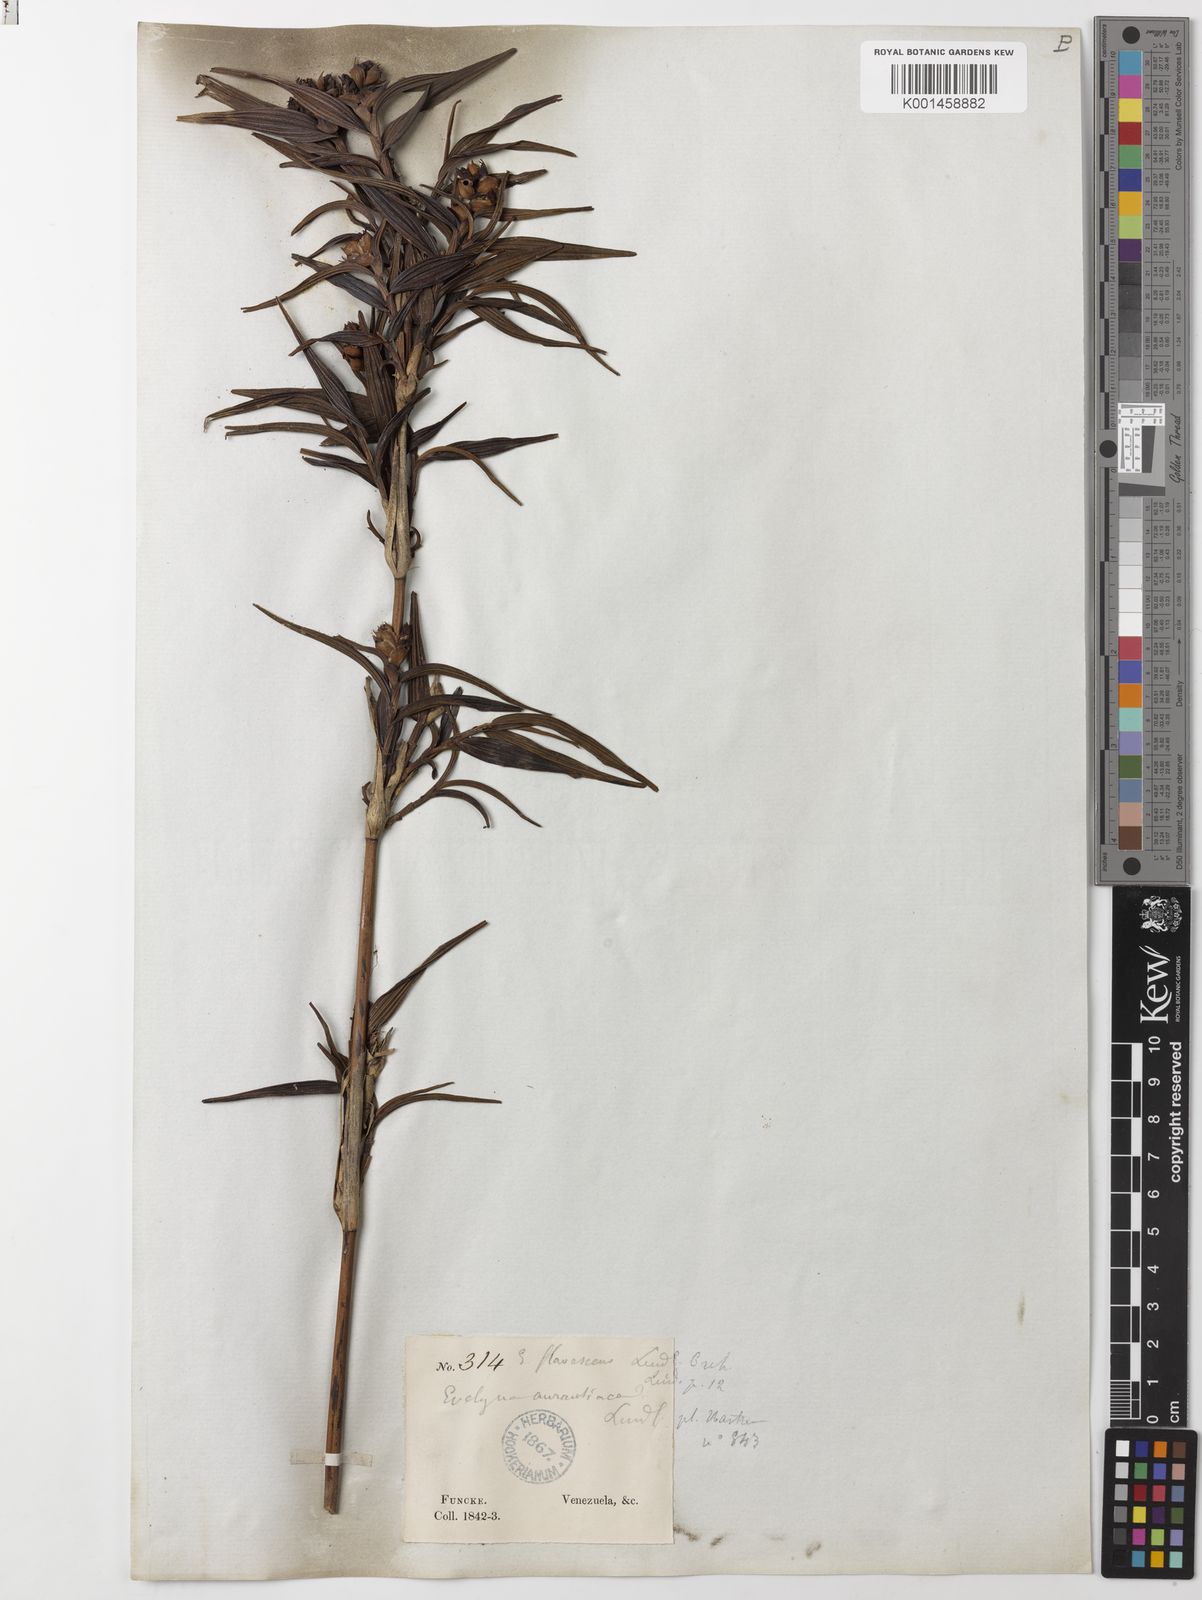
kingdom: Plantae
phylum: Tracheophyta
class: Liliopsida
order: Asparagales
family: Orchidaceae
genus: Elleanthus
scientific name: Elleanthus
